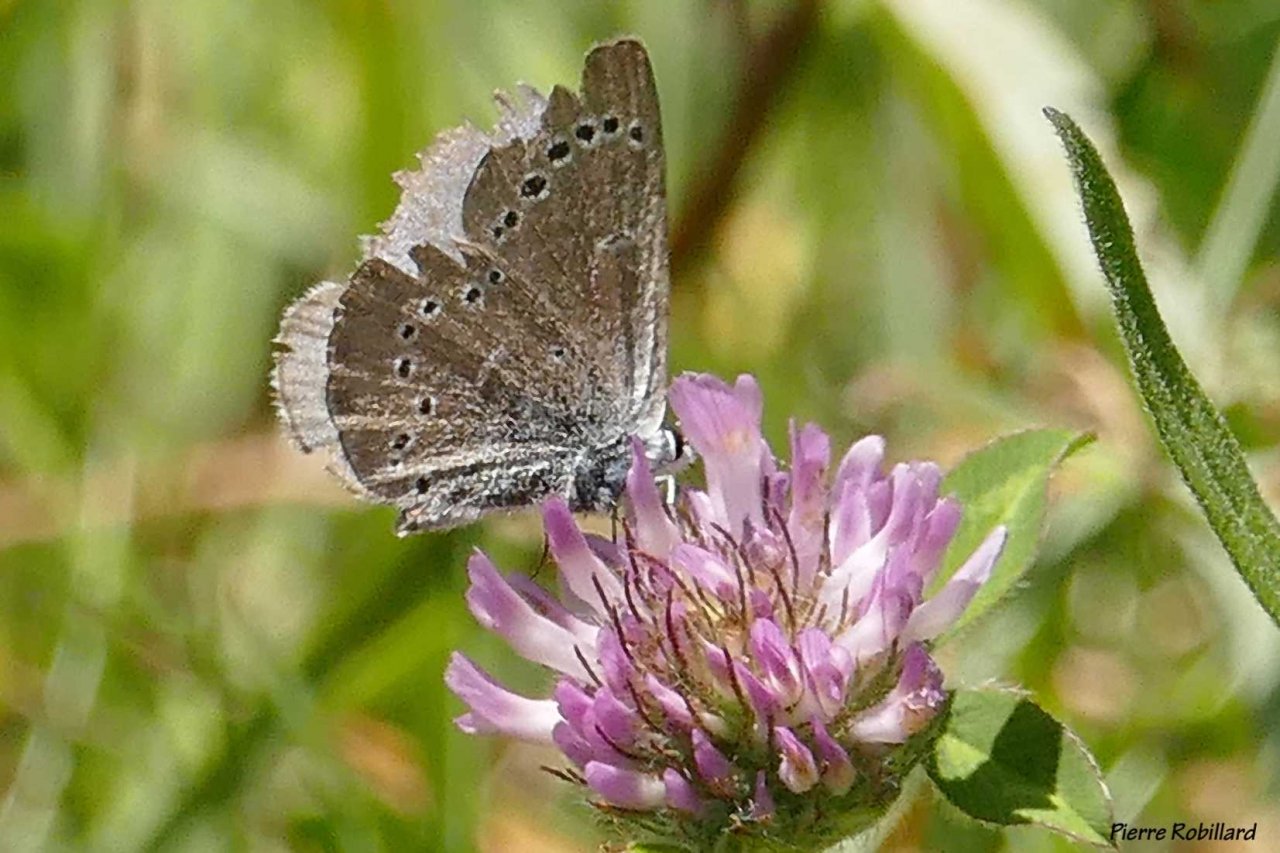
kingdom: Animalia
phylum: Arthropoda
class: Insecta
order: Lepidoptera
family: Lycaenidae
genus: Glaucopsyche
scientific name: Glaucopsyche lygdamus
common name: Silvery Blue
